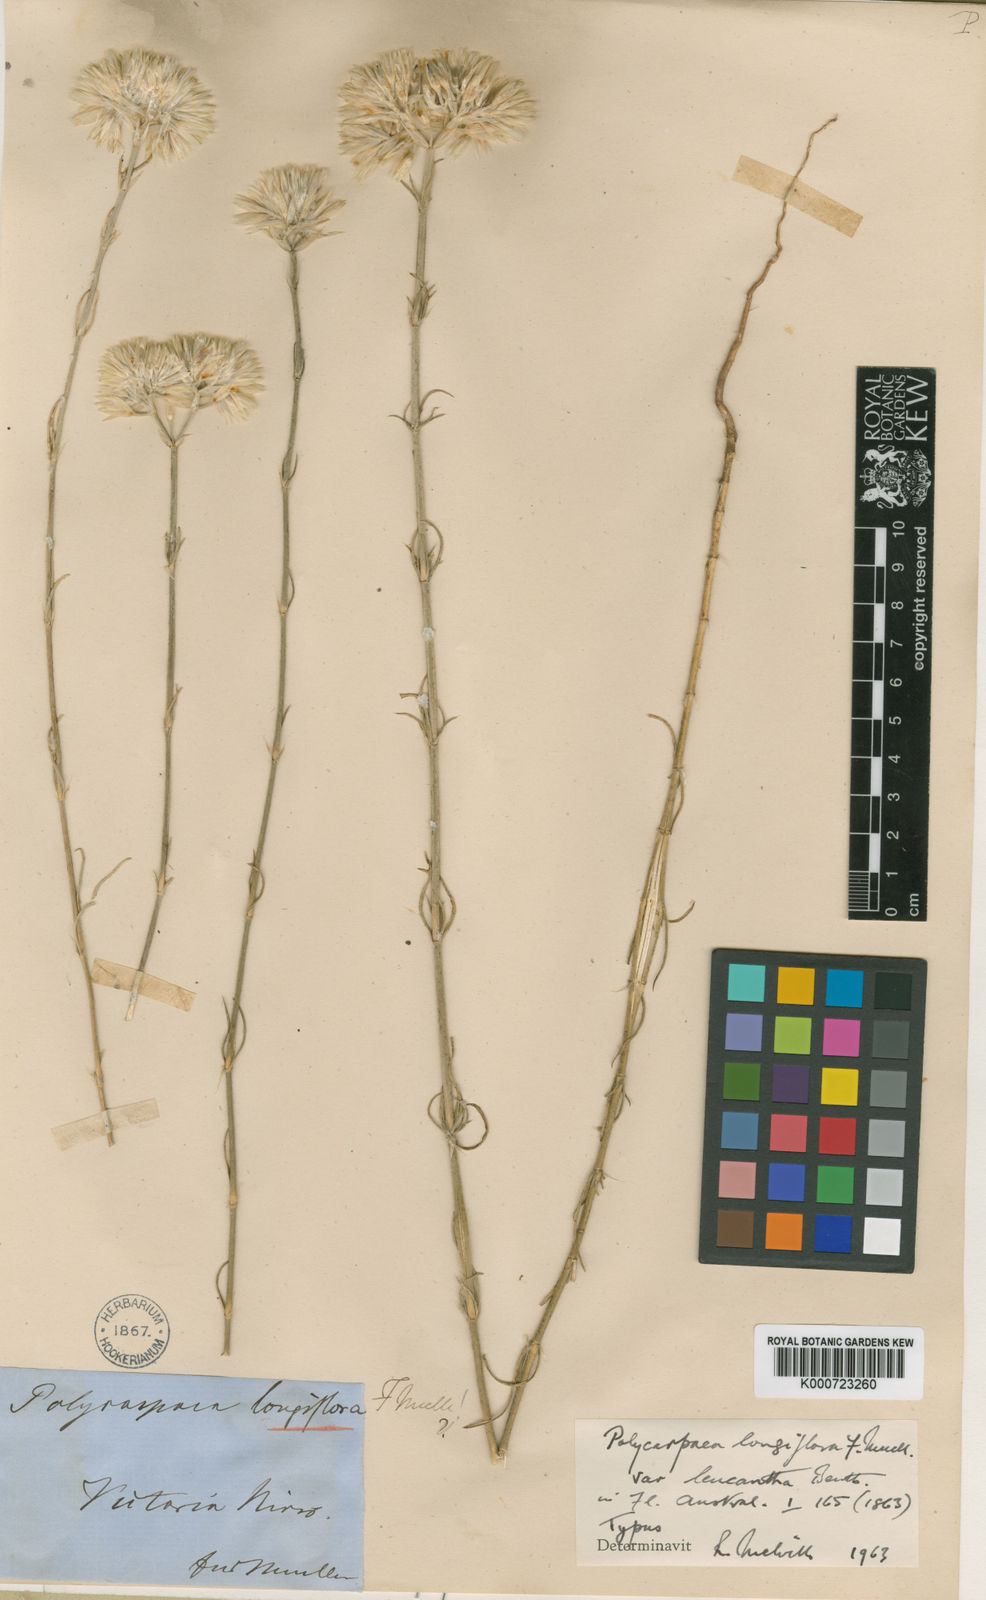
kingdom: Plantae
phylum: Tracheophyta
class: Magnoliopsida
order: Caryophyllales
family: Caryophyllaceae
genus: Polycarpaea
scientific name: Polycarpaea longiflora
